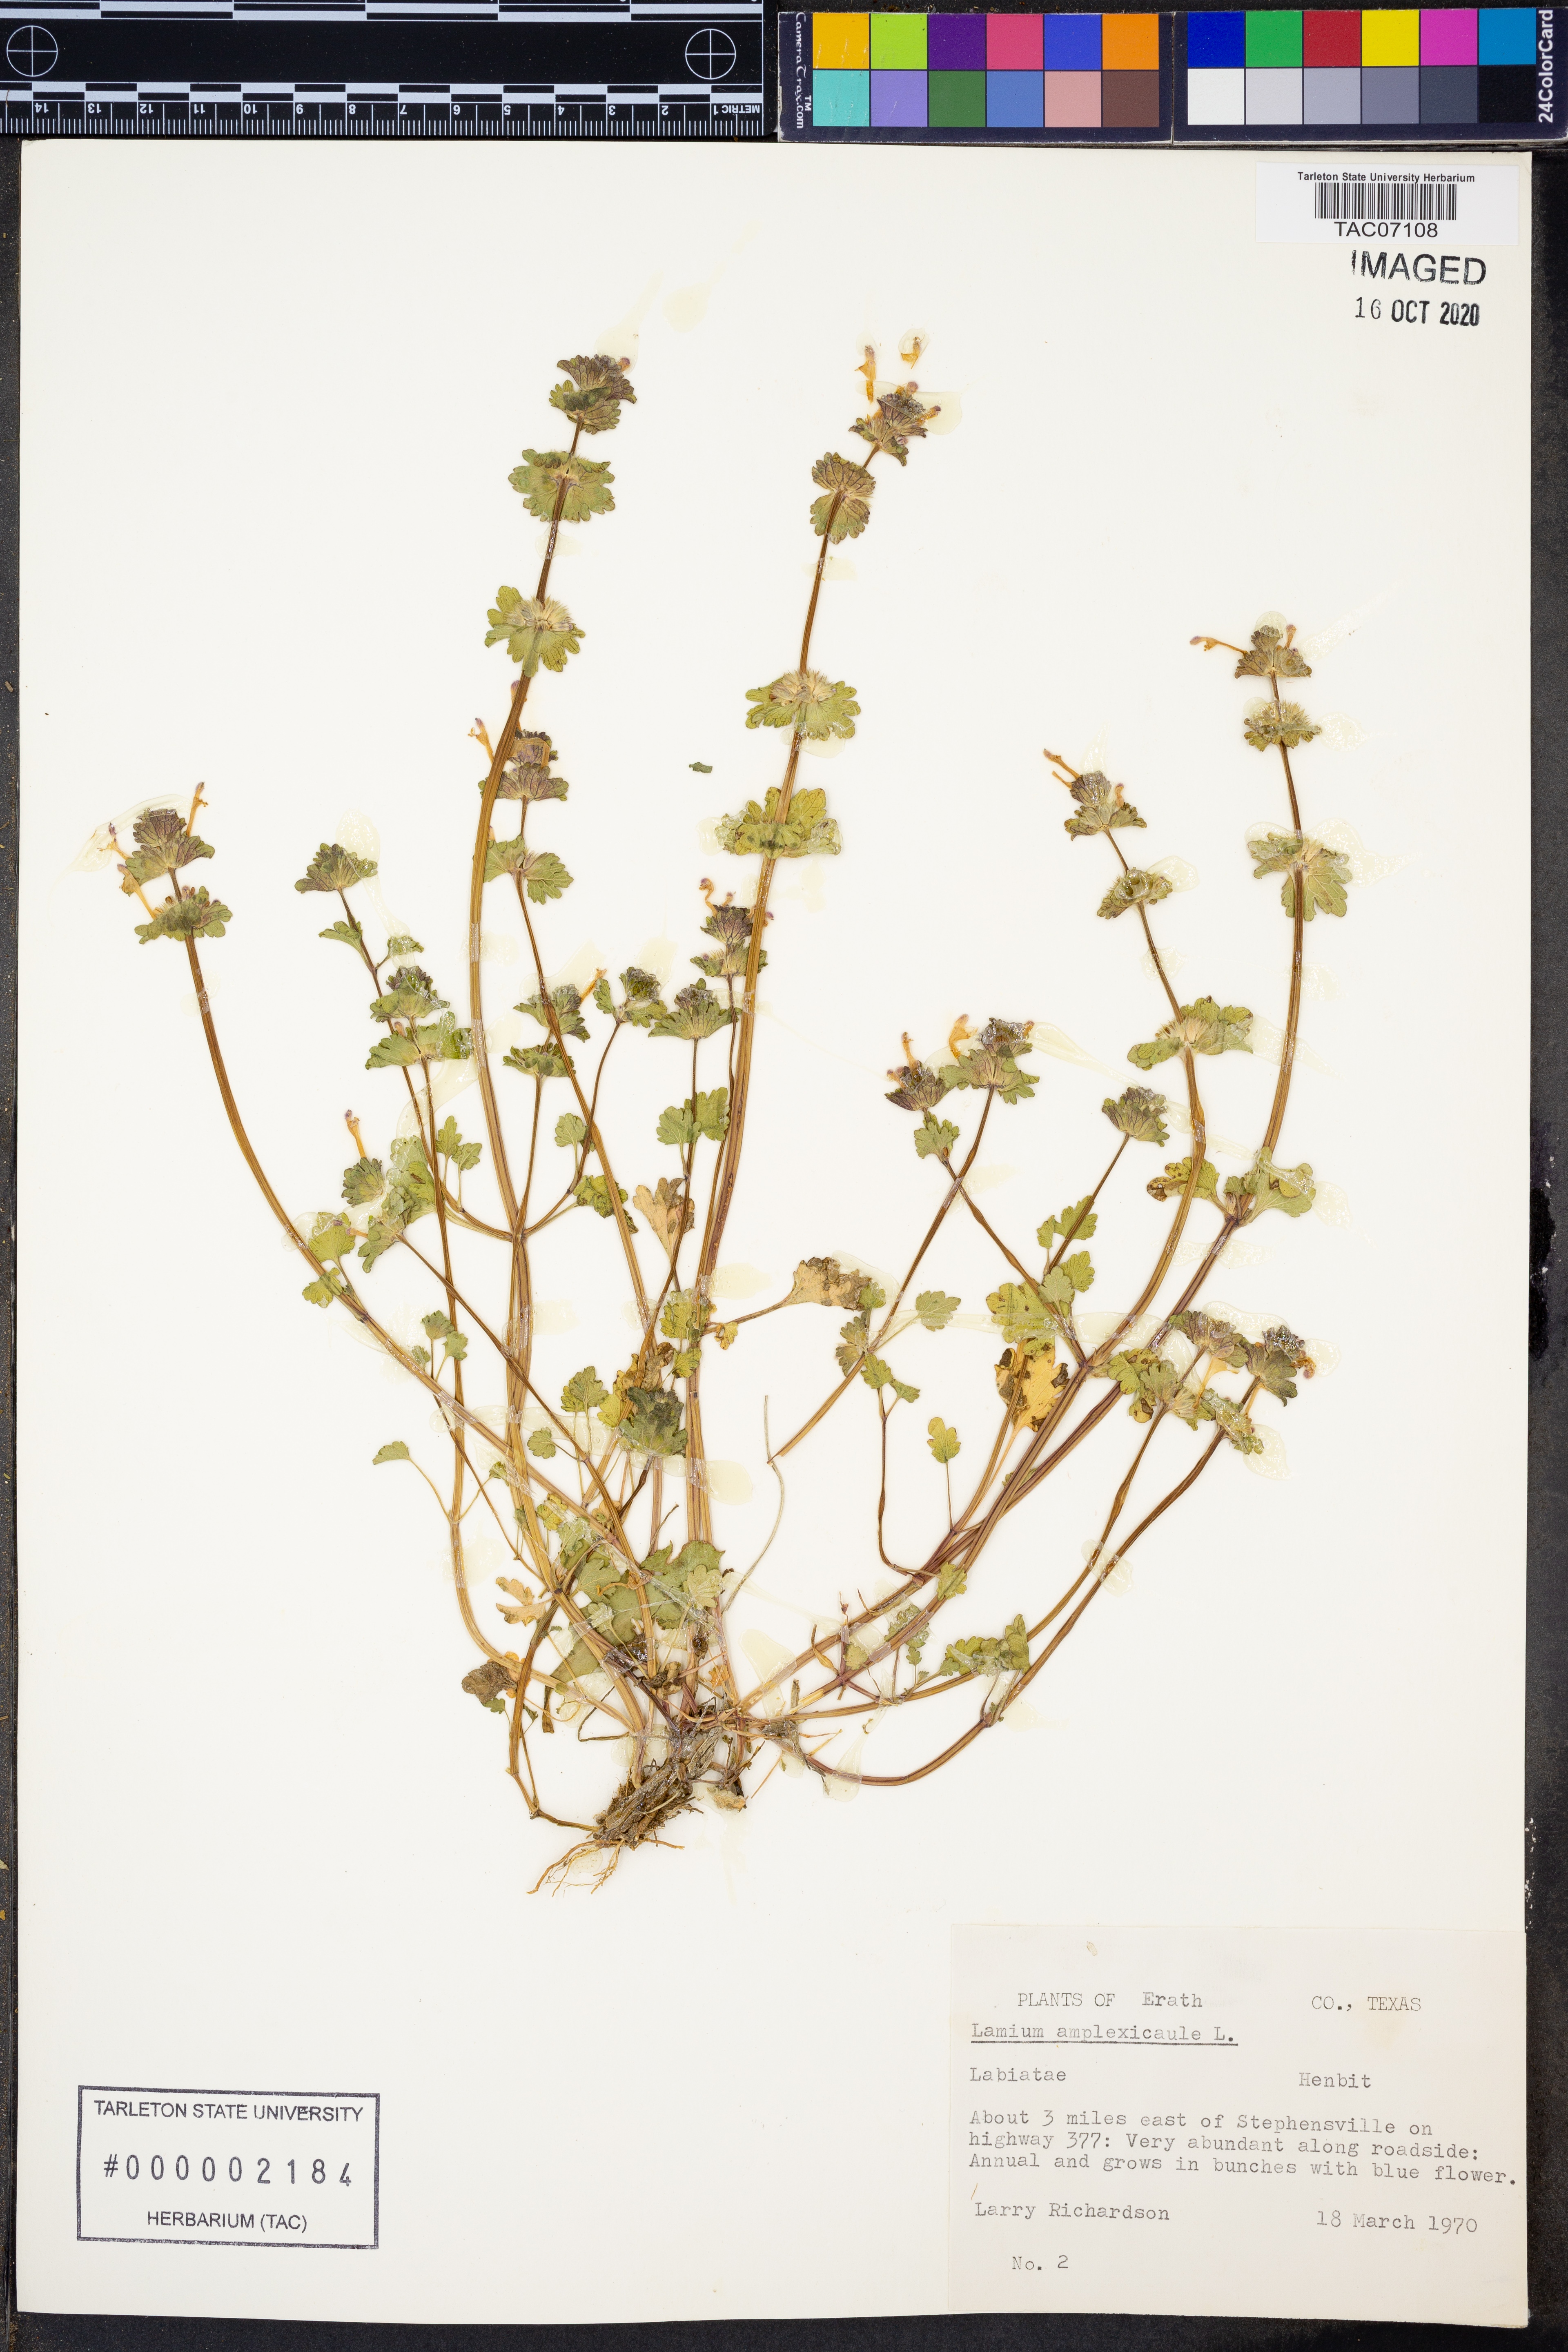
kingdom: Plantae
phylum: Tracheophyta
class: Magnoliopsida
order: Lamiales
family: Lamiaceae
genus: Lamium
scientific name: Lamium amplexicaule
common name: Henbit dead-nettle
